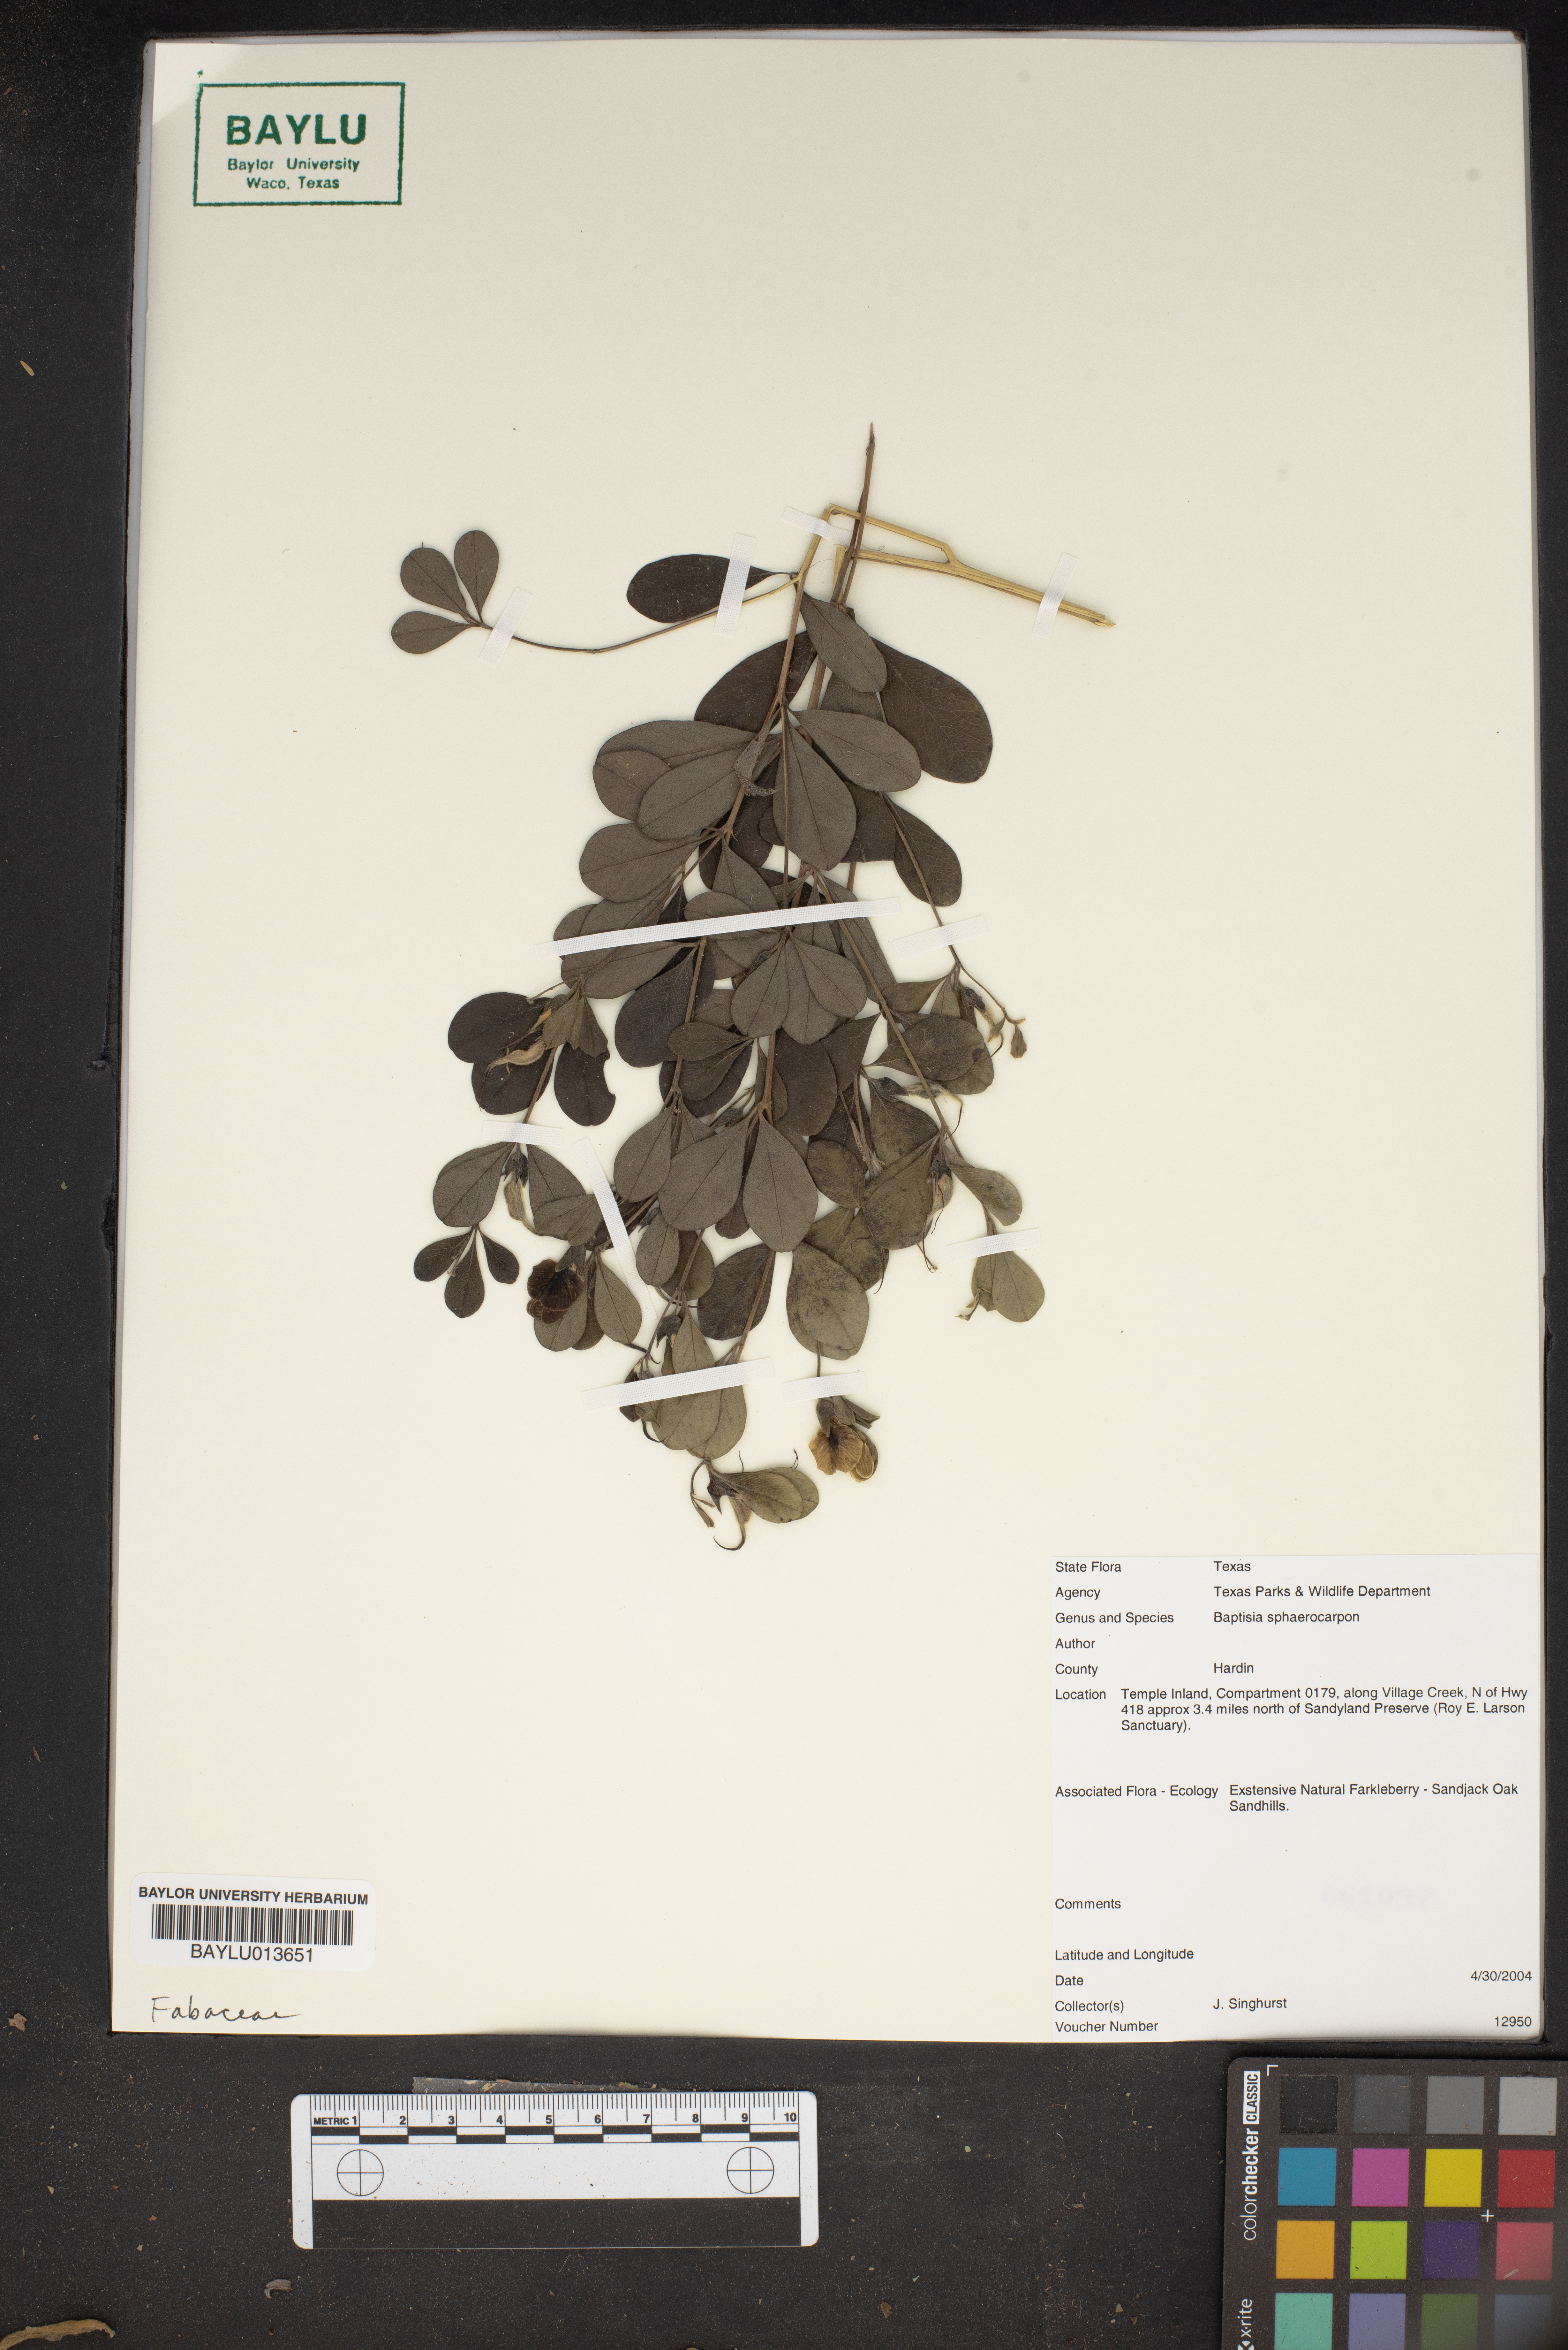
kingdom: Plantae
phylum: Tracheophyta
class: Magnoliopsida
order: Fabales
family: Fabaceae
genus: Baptisia
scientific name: Baptisia sphaerocarpa
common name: Round wild indigo
